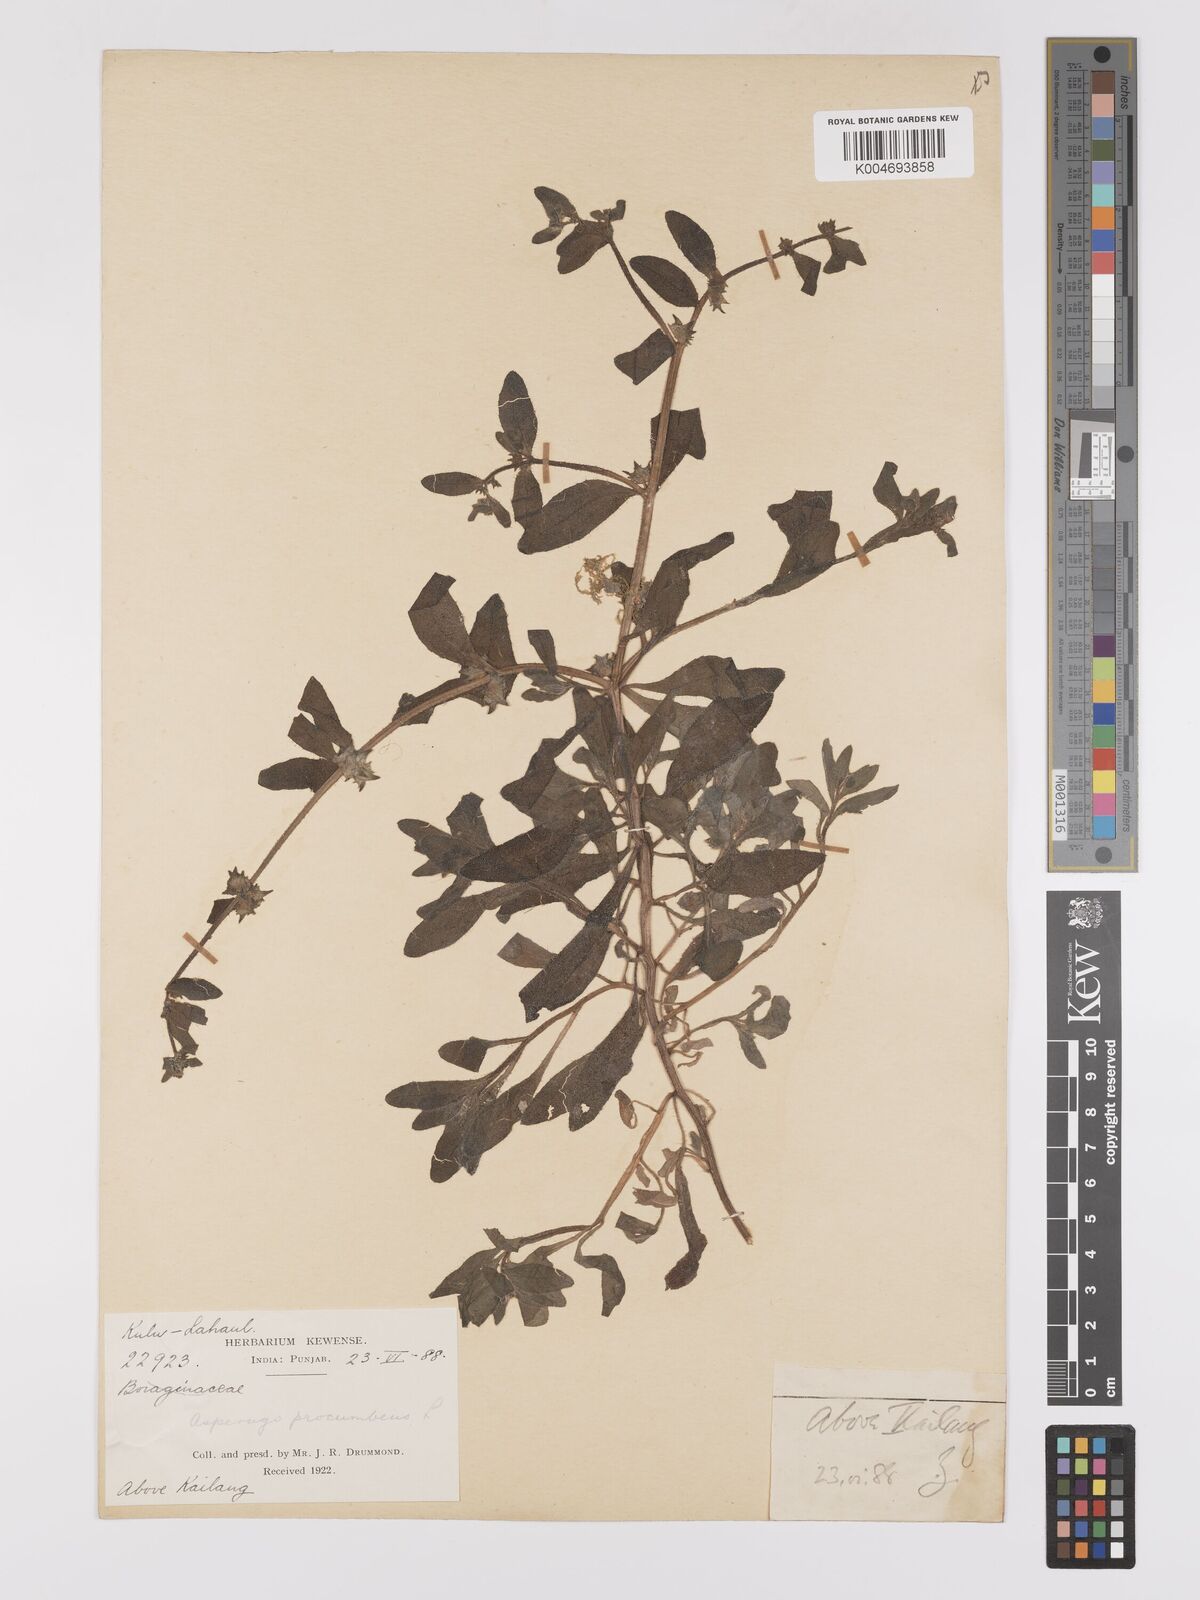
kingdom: Plantae
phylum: Tracheophyta
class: Magnoliopsida
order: Boraginales
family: Boraginaceae
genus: Asperugo
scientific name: Asperugo procumbens
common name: Madwort
